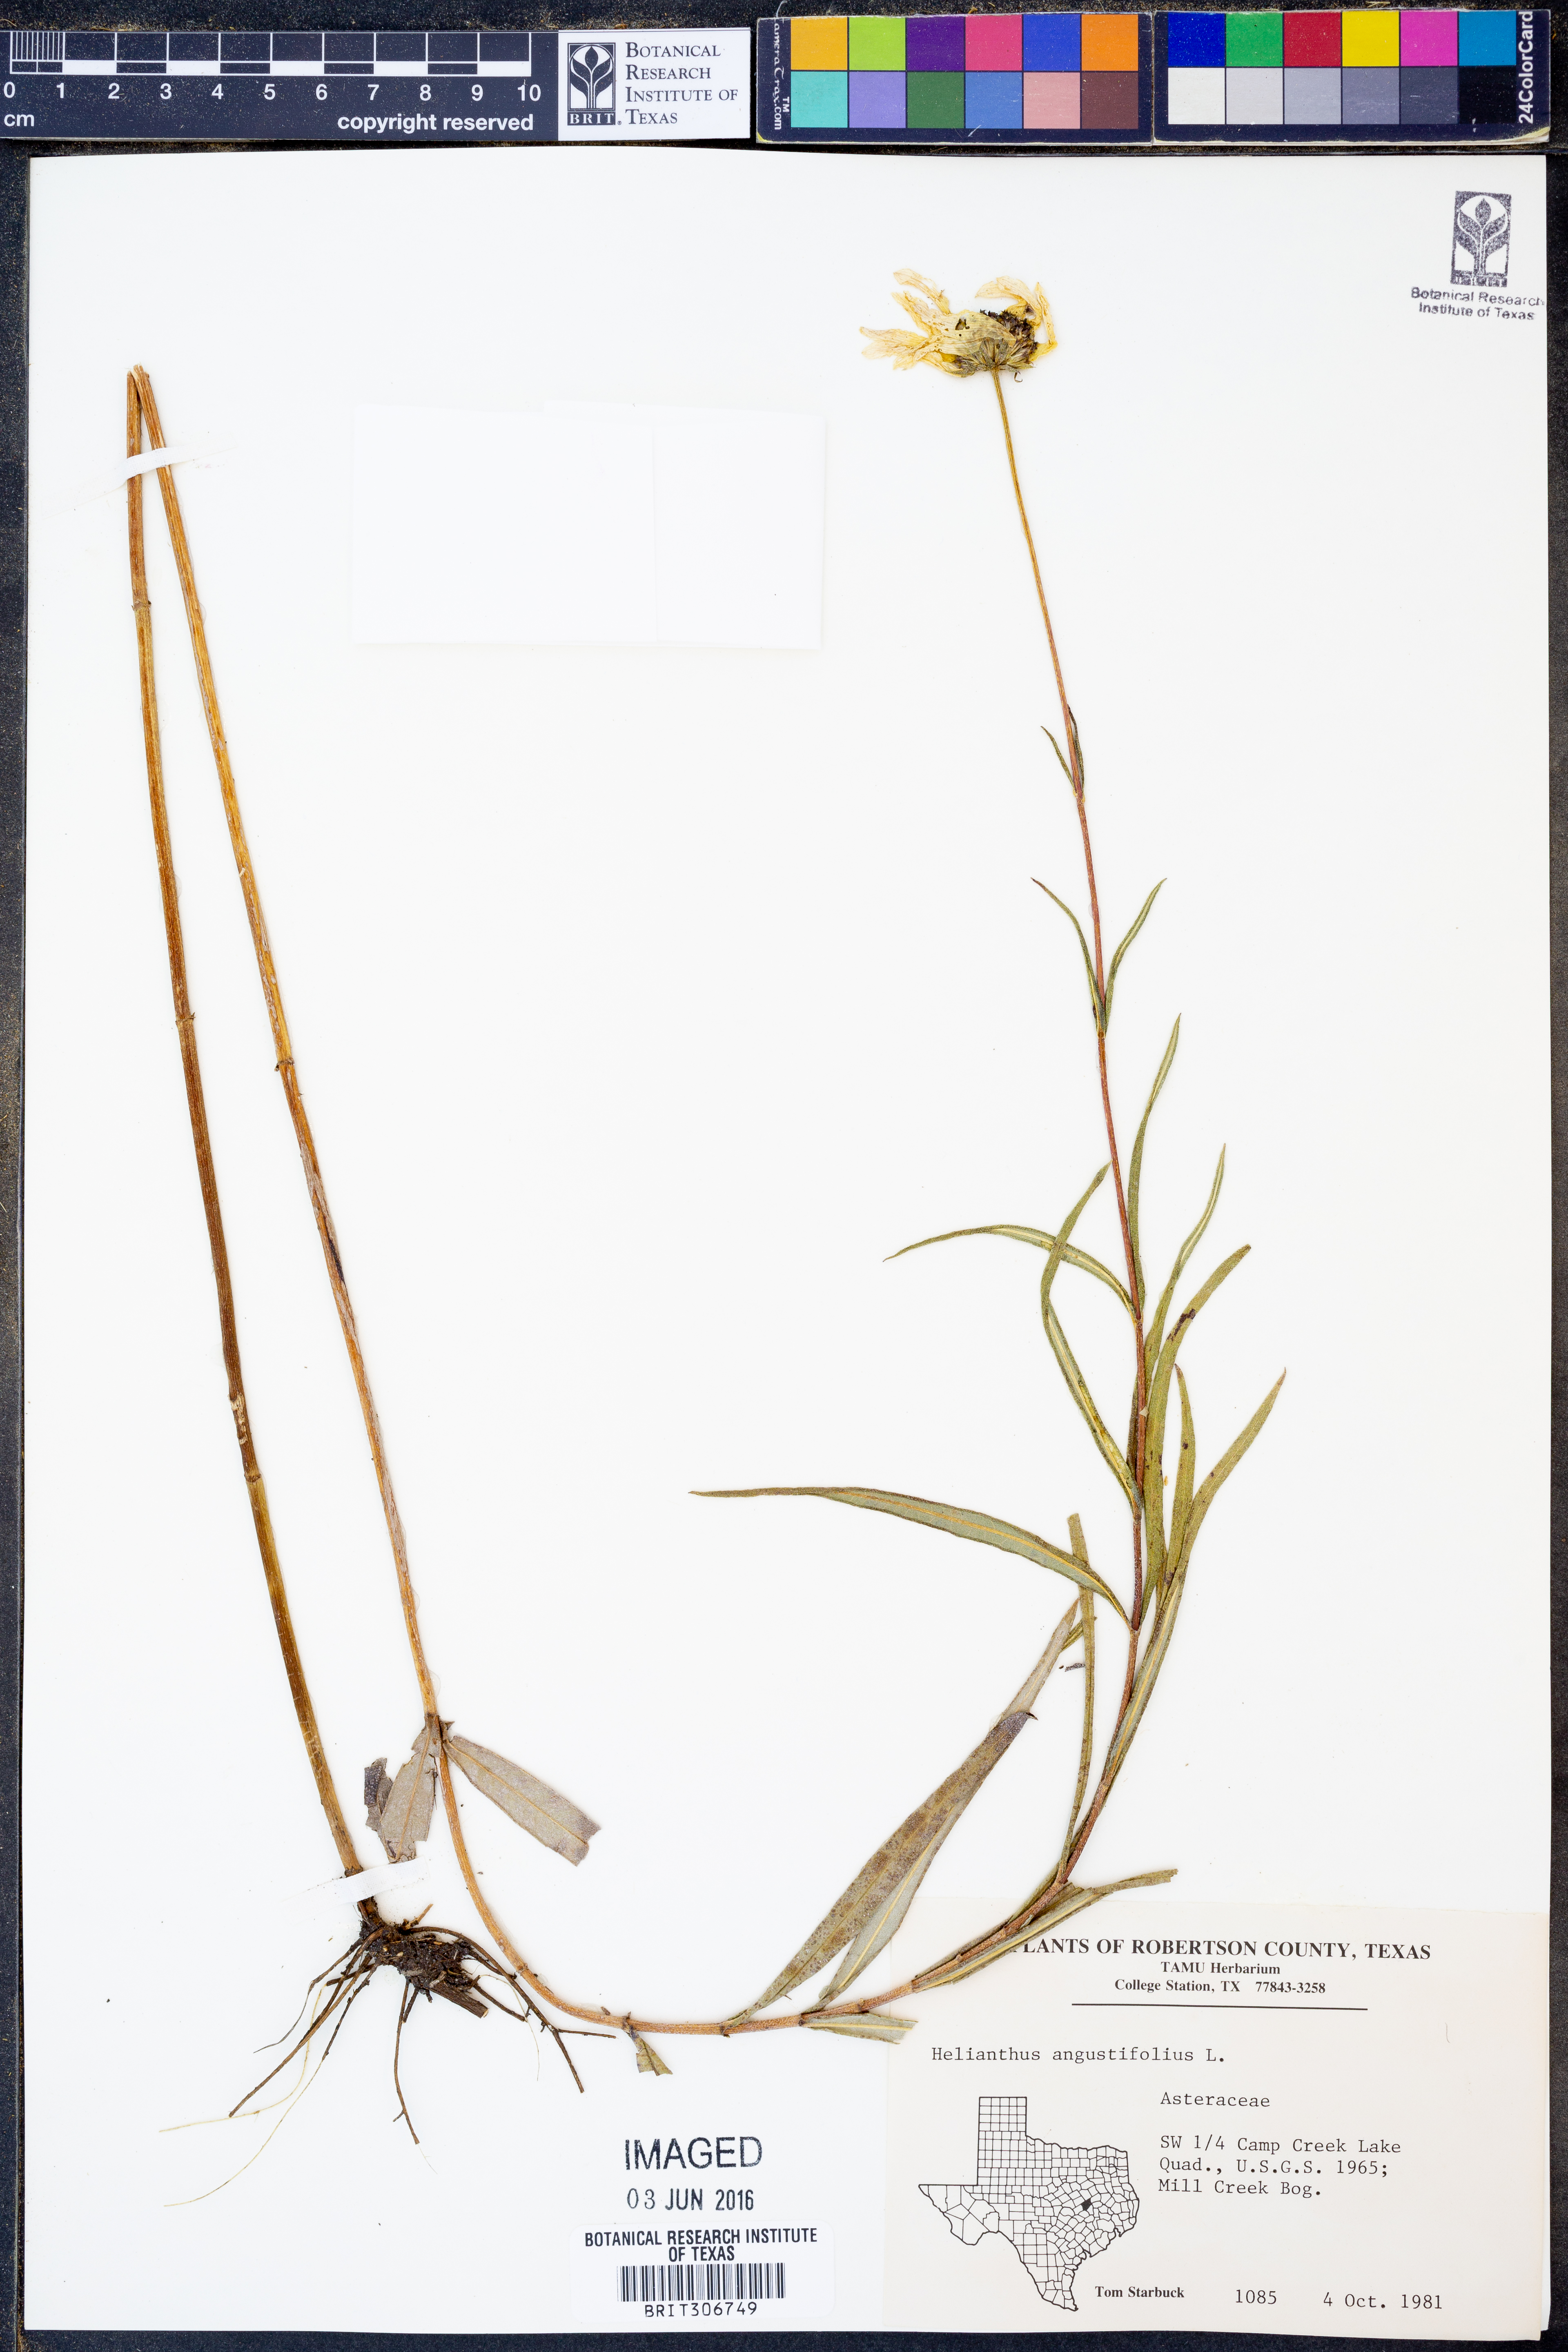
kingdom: Plantae
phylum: Tracheophyta
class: Magnoliopsida
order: Asterales
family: Asteraceae
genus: Helianthus
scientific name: Helianthus angustifolius
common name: Swamp sunflower
